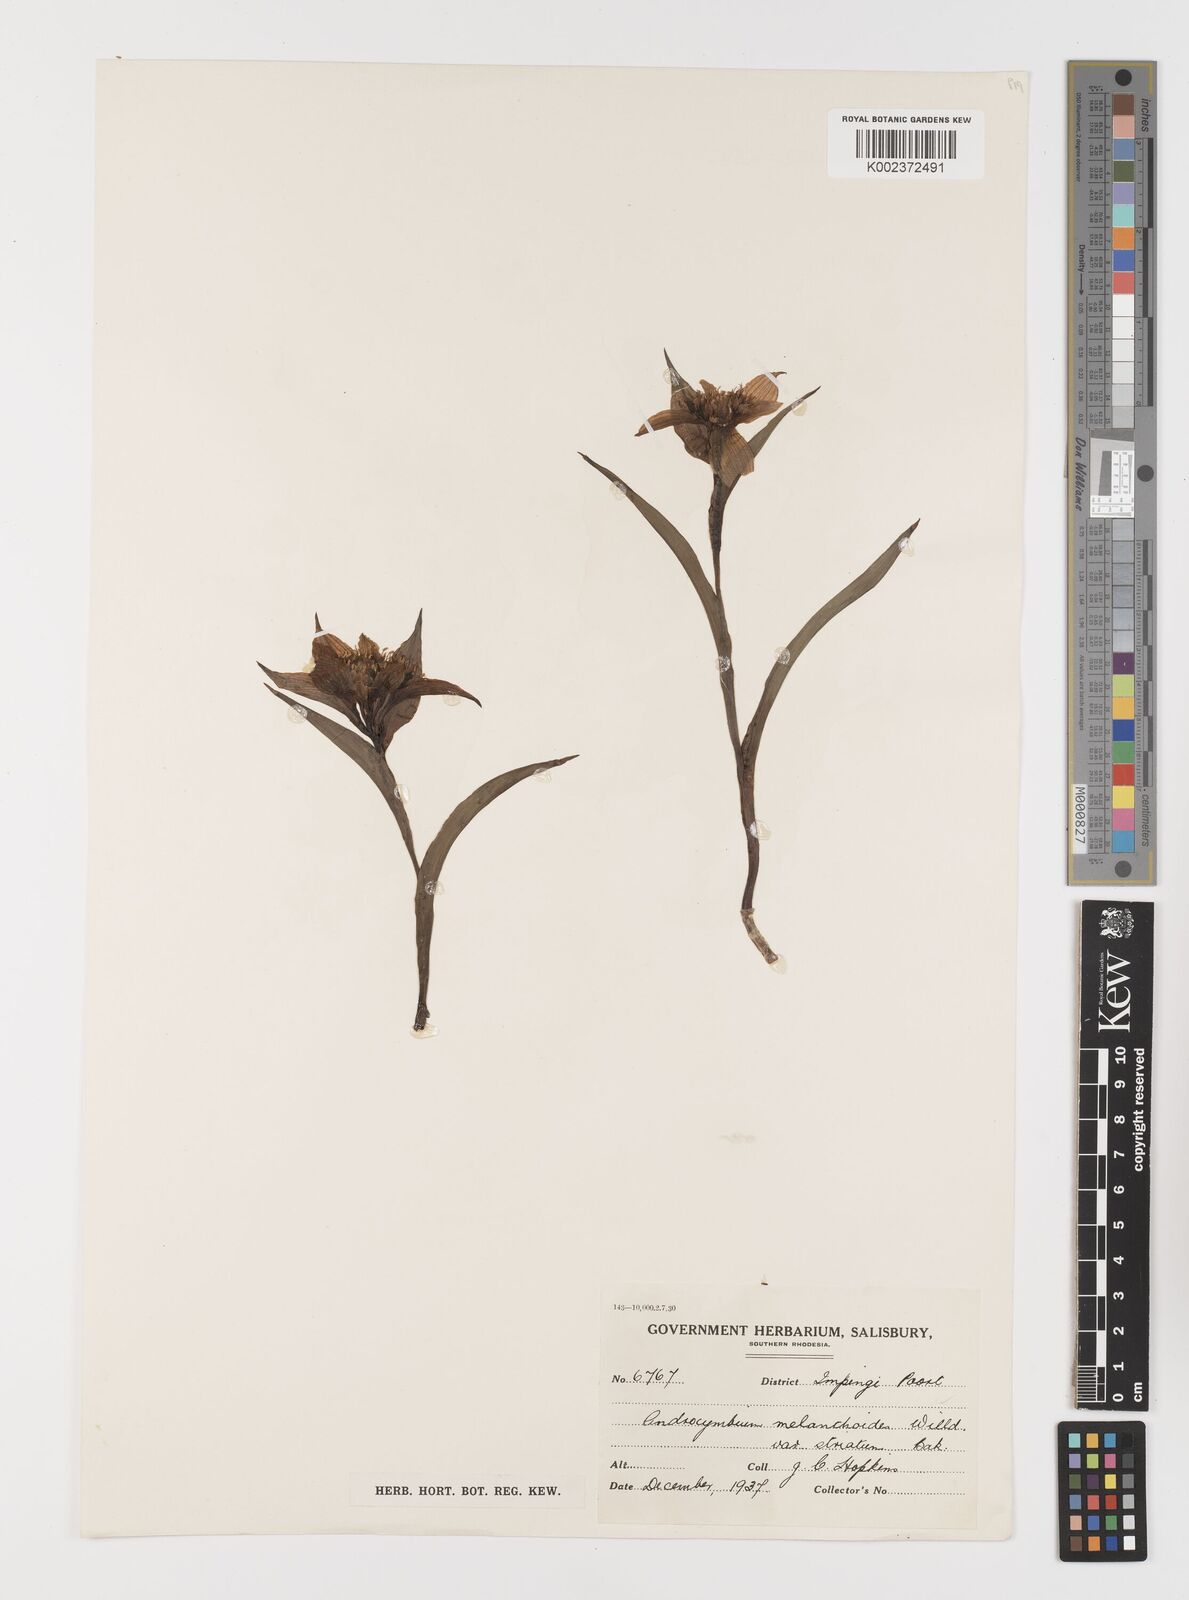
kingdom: Plantae
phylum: Tracheophyta
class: Liliopsida
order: Liliales
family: Colchicaceae
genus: Colchicum
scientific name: Colchicum striatum
